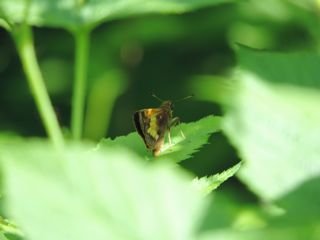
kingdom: Animalia
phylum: Arthropoda
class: Insecta
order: Lepidoptera
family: Hesperiidae
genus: Lon
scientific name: Lon hobomok
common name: Hobomok Skipper
